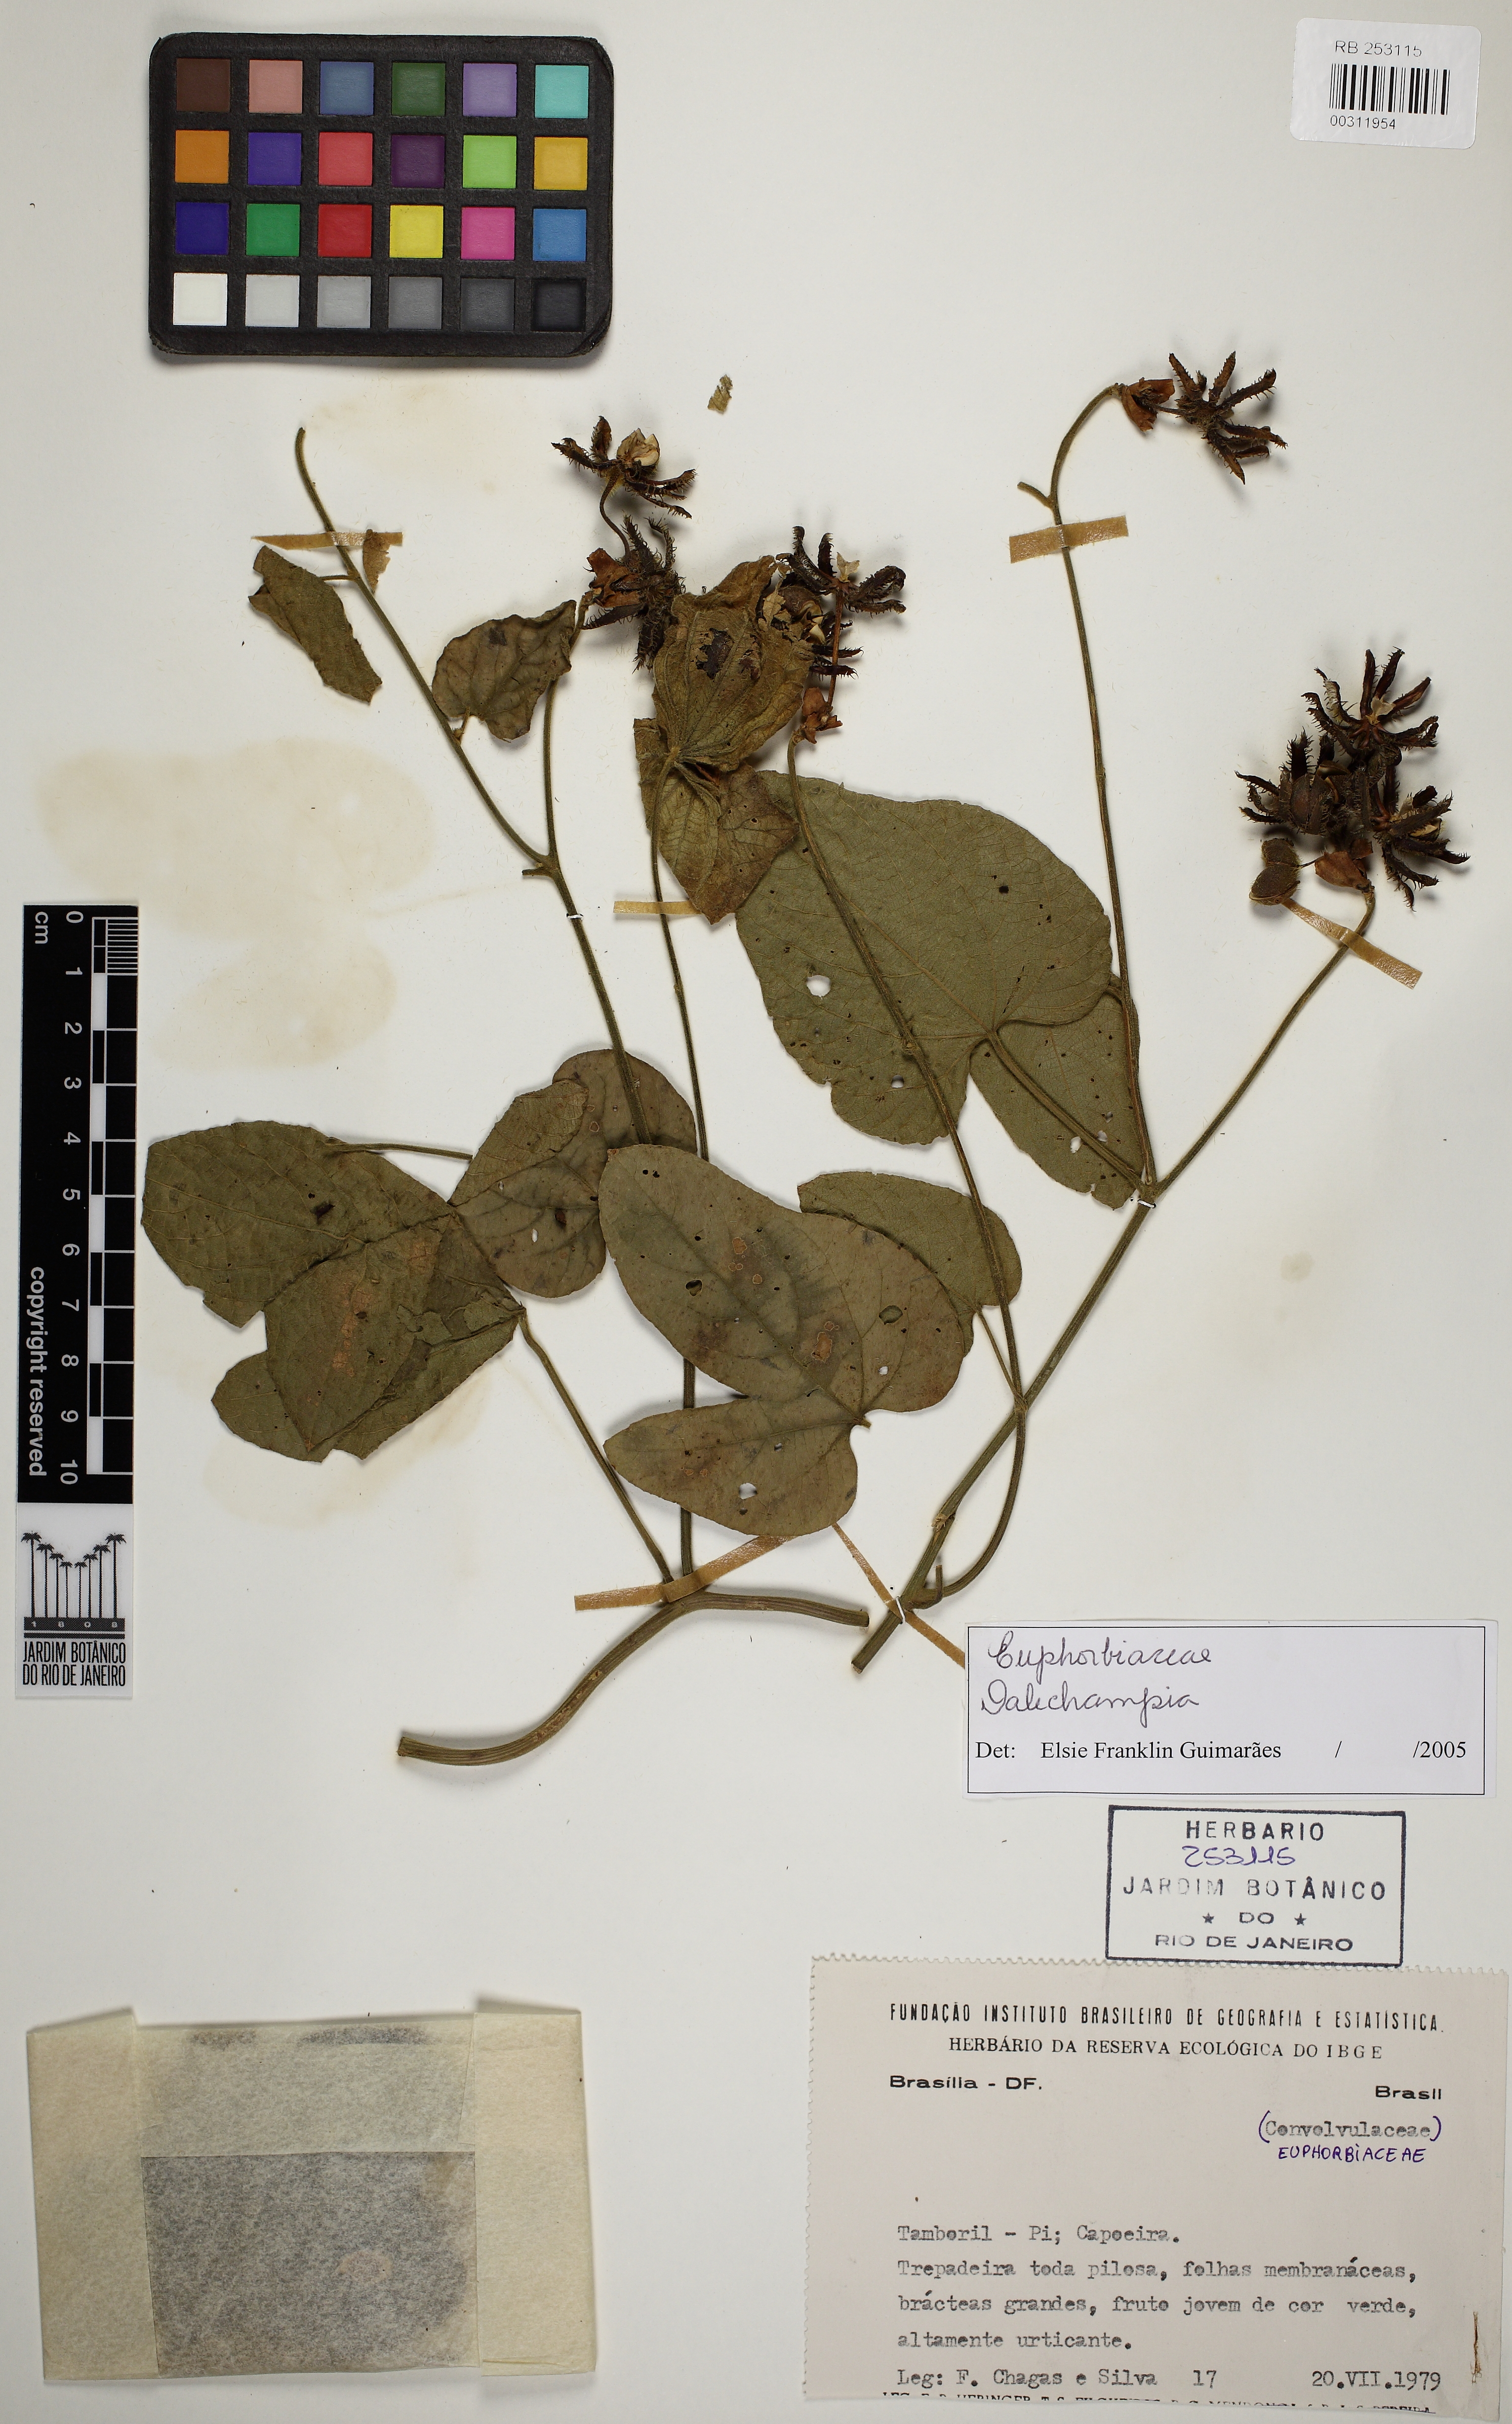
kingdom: Plantae
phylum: Tracheophyta
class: Magnoliopsida
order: Malpighiales
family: Euphorbiaceae
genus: Dalechampia
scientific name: Dalechampia tiliifolia
